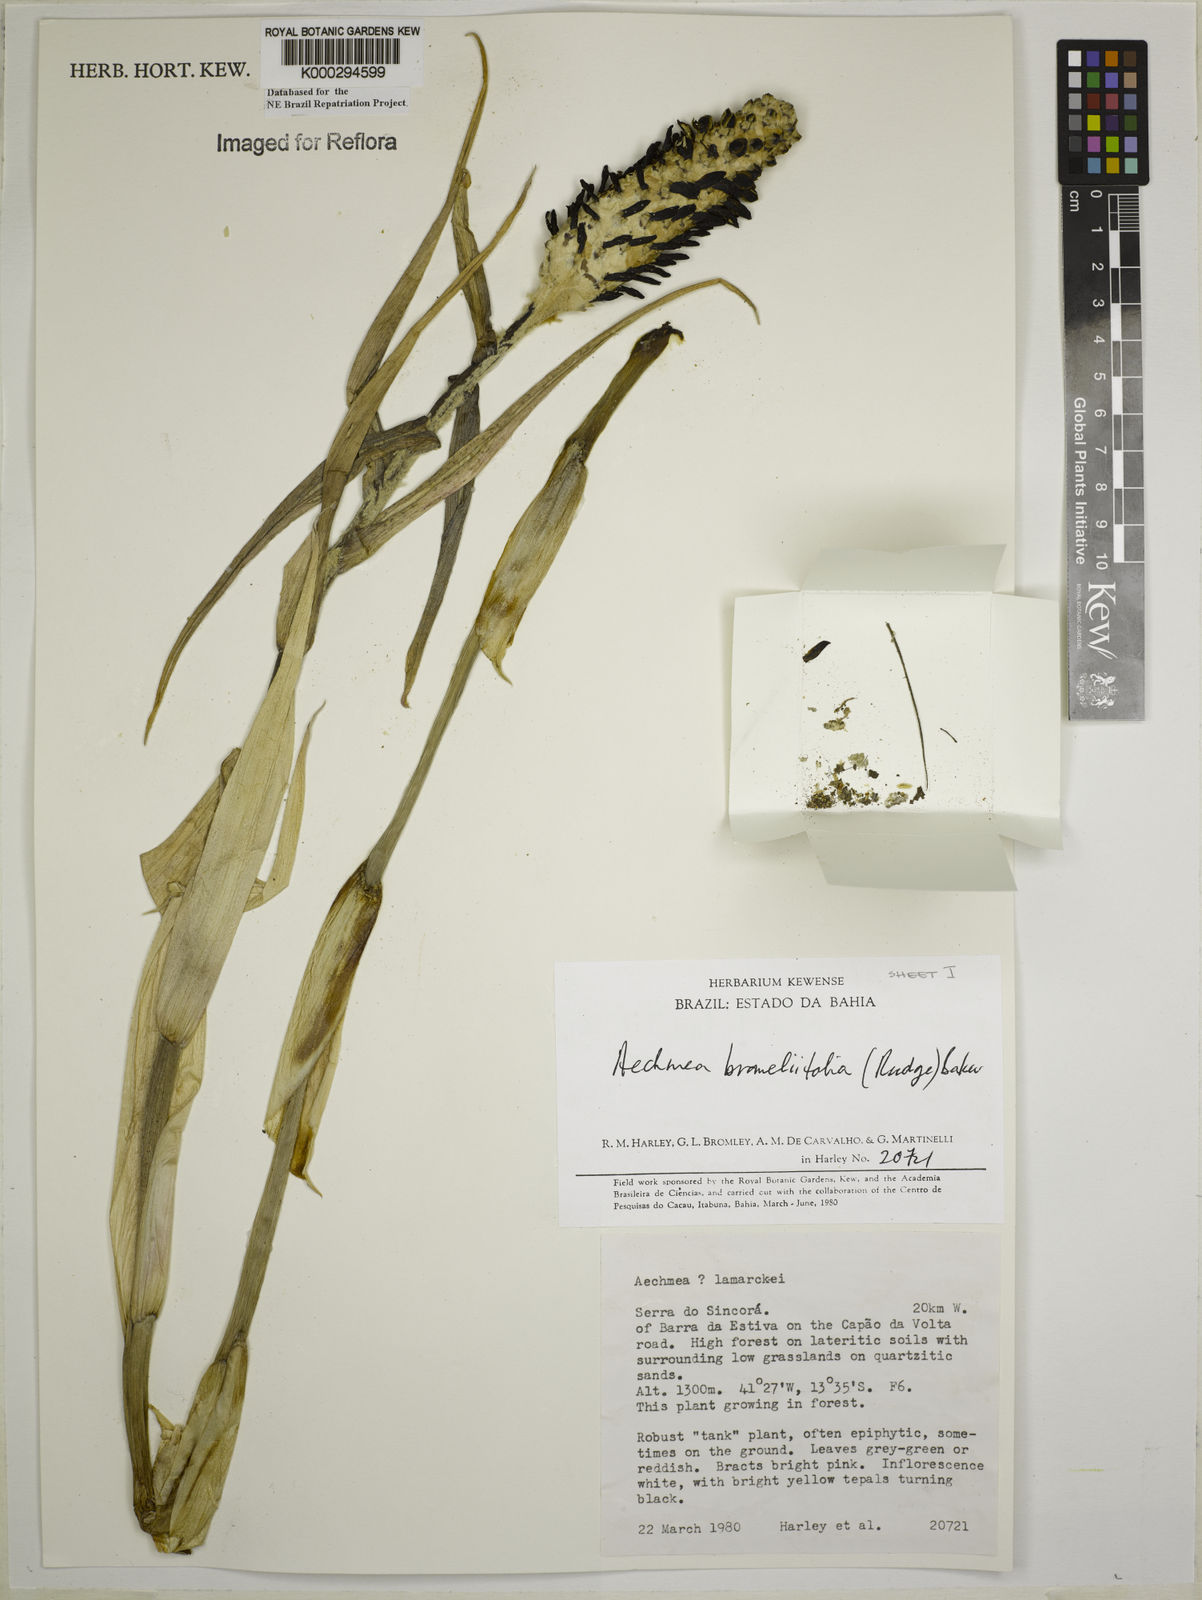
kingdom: Plantae
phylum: Tracheophyta
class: Liliopsida
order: Poales
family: Bromeliaceae
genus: Aechmea
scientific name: Aechmea
